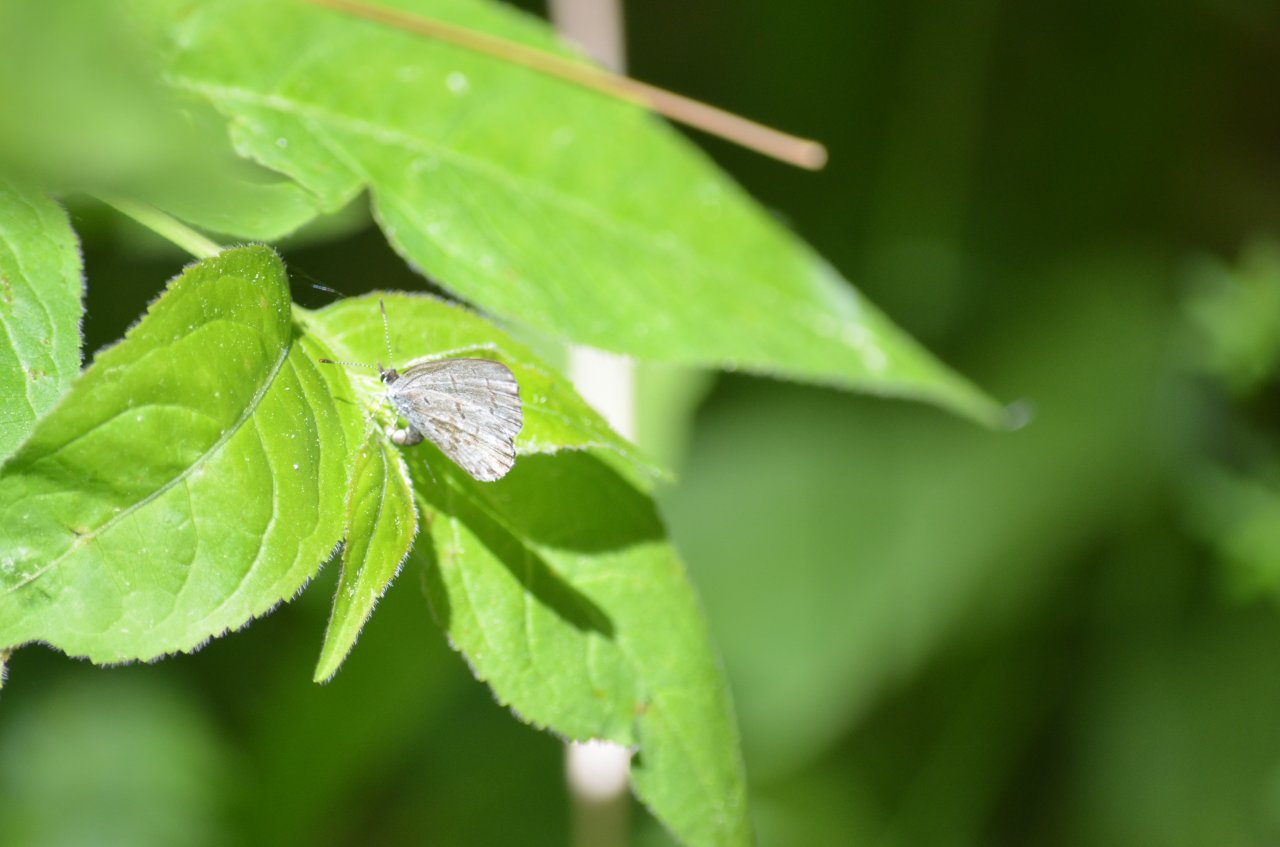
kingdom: Animalia
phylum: Arthropoda
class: Insecta
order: Lepidoptera
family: Lycaenidae
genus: Celastrina
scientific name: Celastrina
